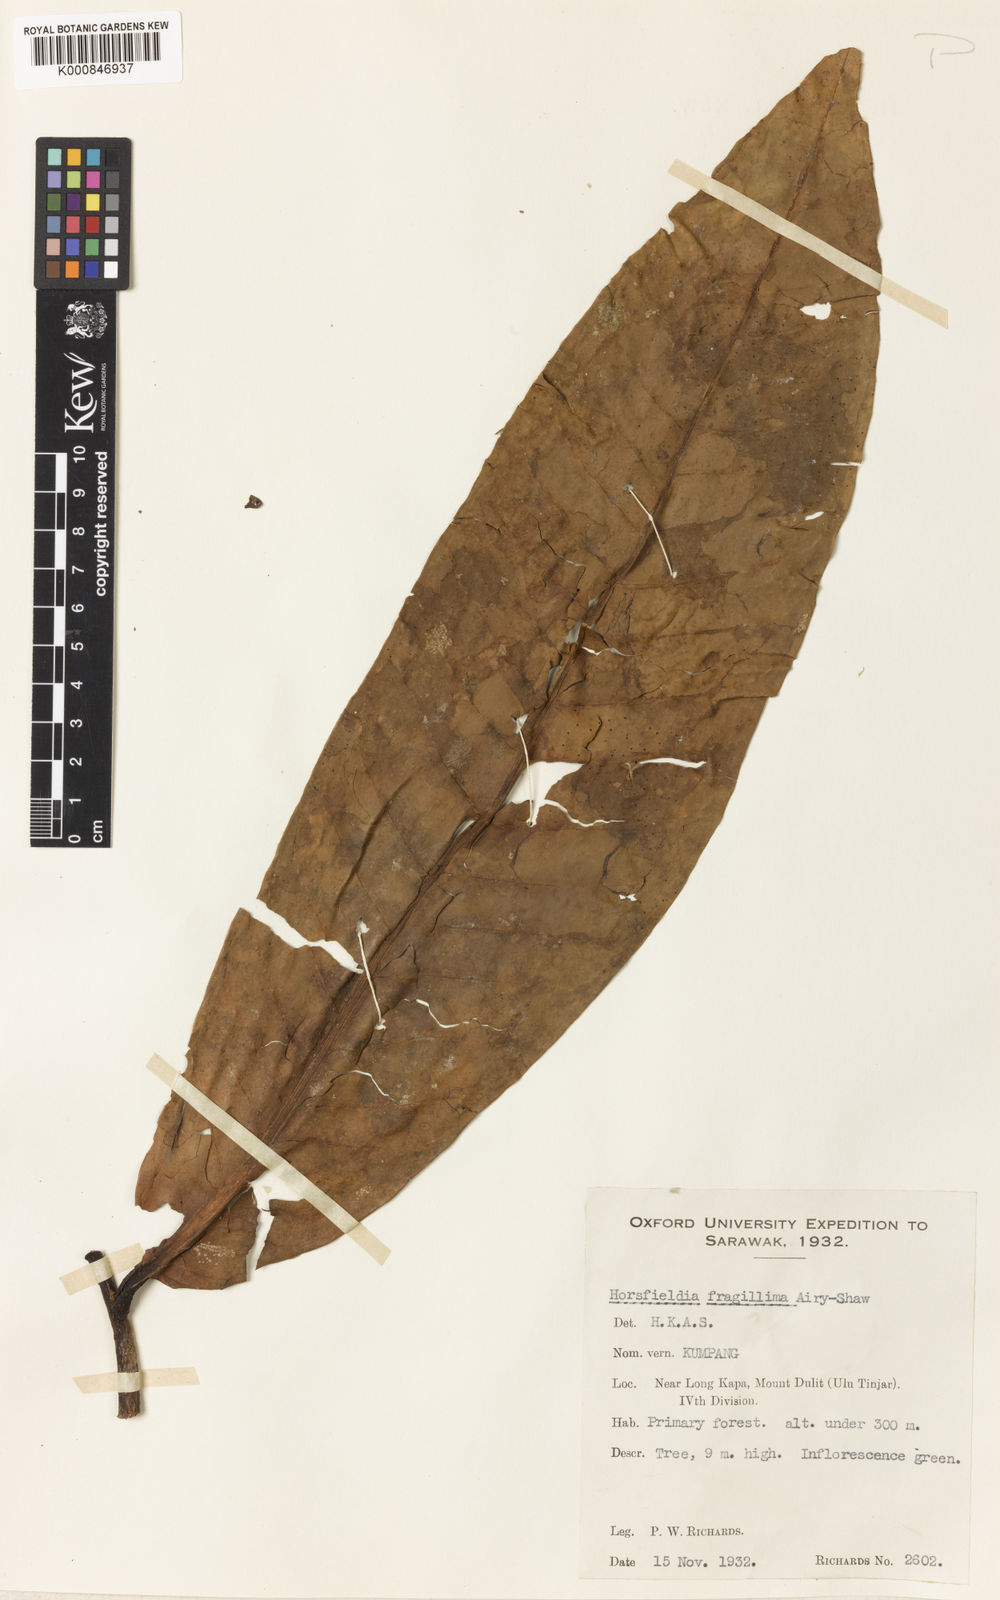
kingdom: Plantae
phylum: Tracheophyta
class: Magnoliopsida
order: Magnoliales
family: Myristicaceae
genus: Horsfieldia
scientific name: Horsfieldia fragillima
